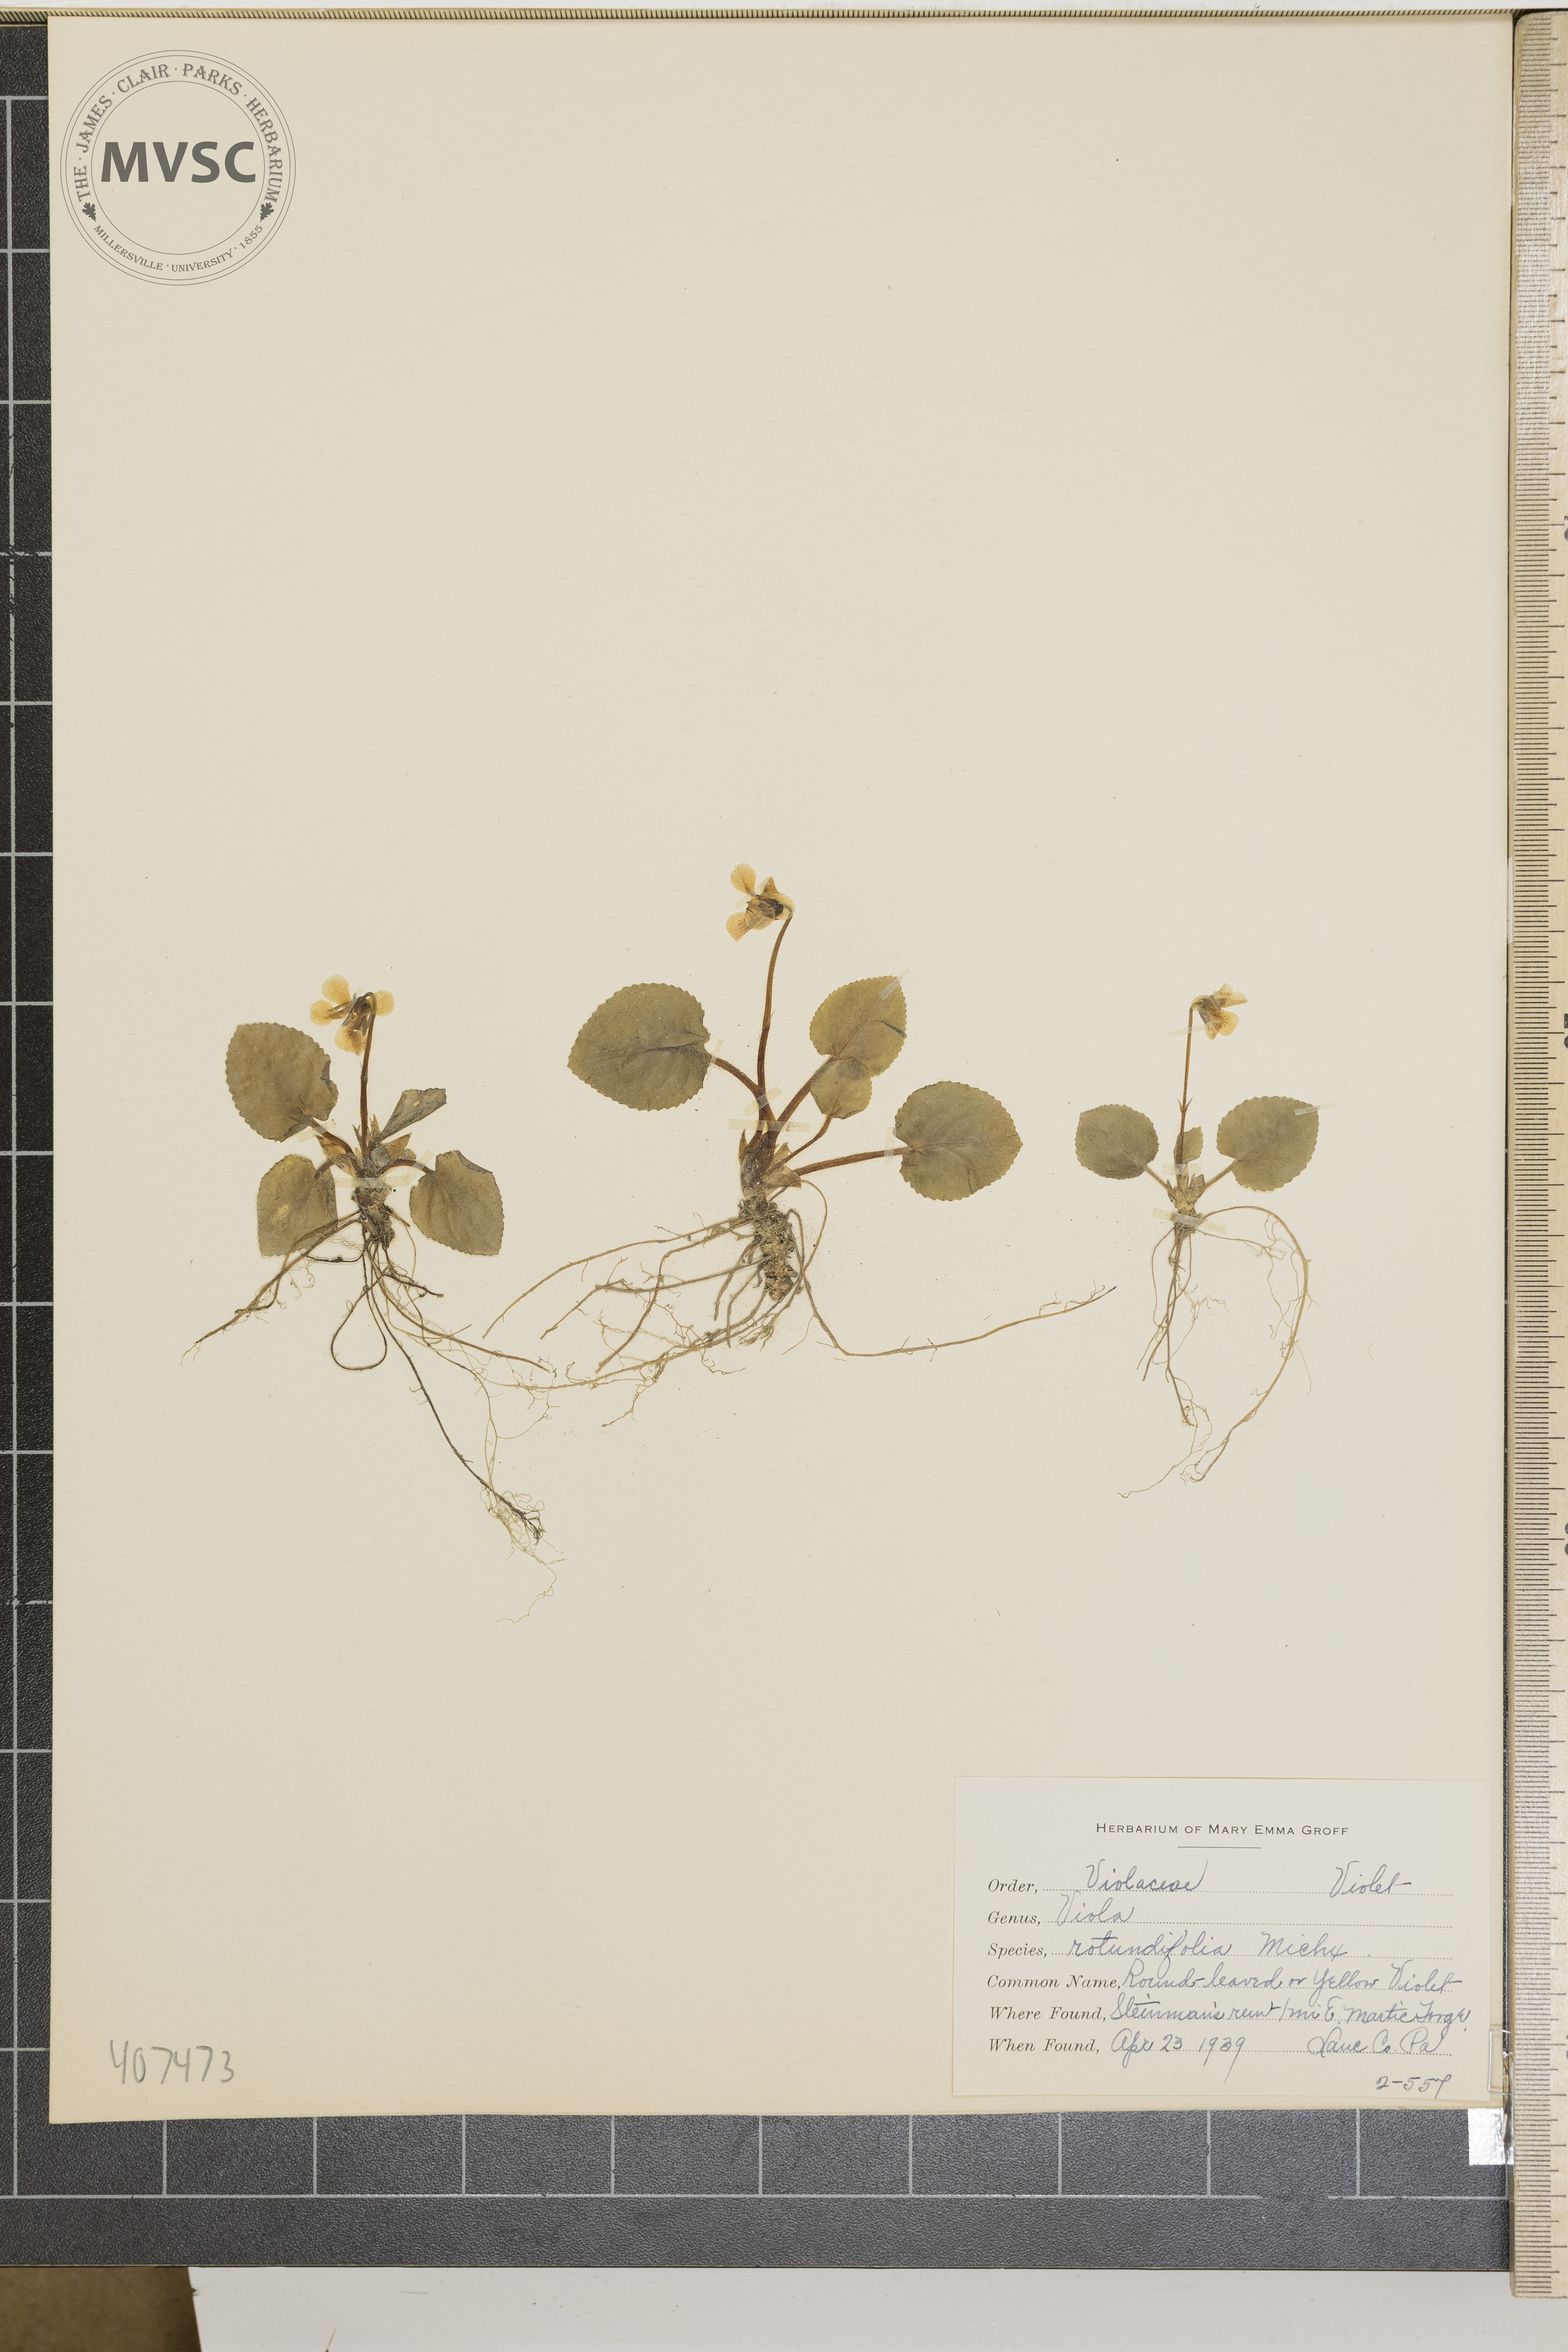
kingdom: Plantae
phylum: Tracheophyta
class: Magnoliopsida
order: Malpighiales
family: Violaceae
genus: Viola
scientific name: Viola rotundifolia
